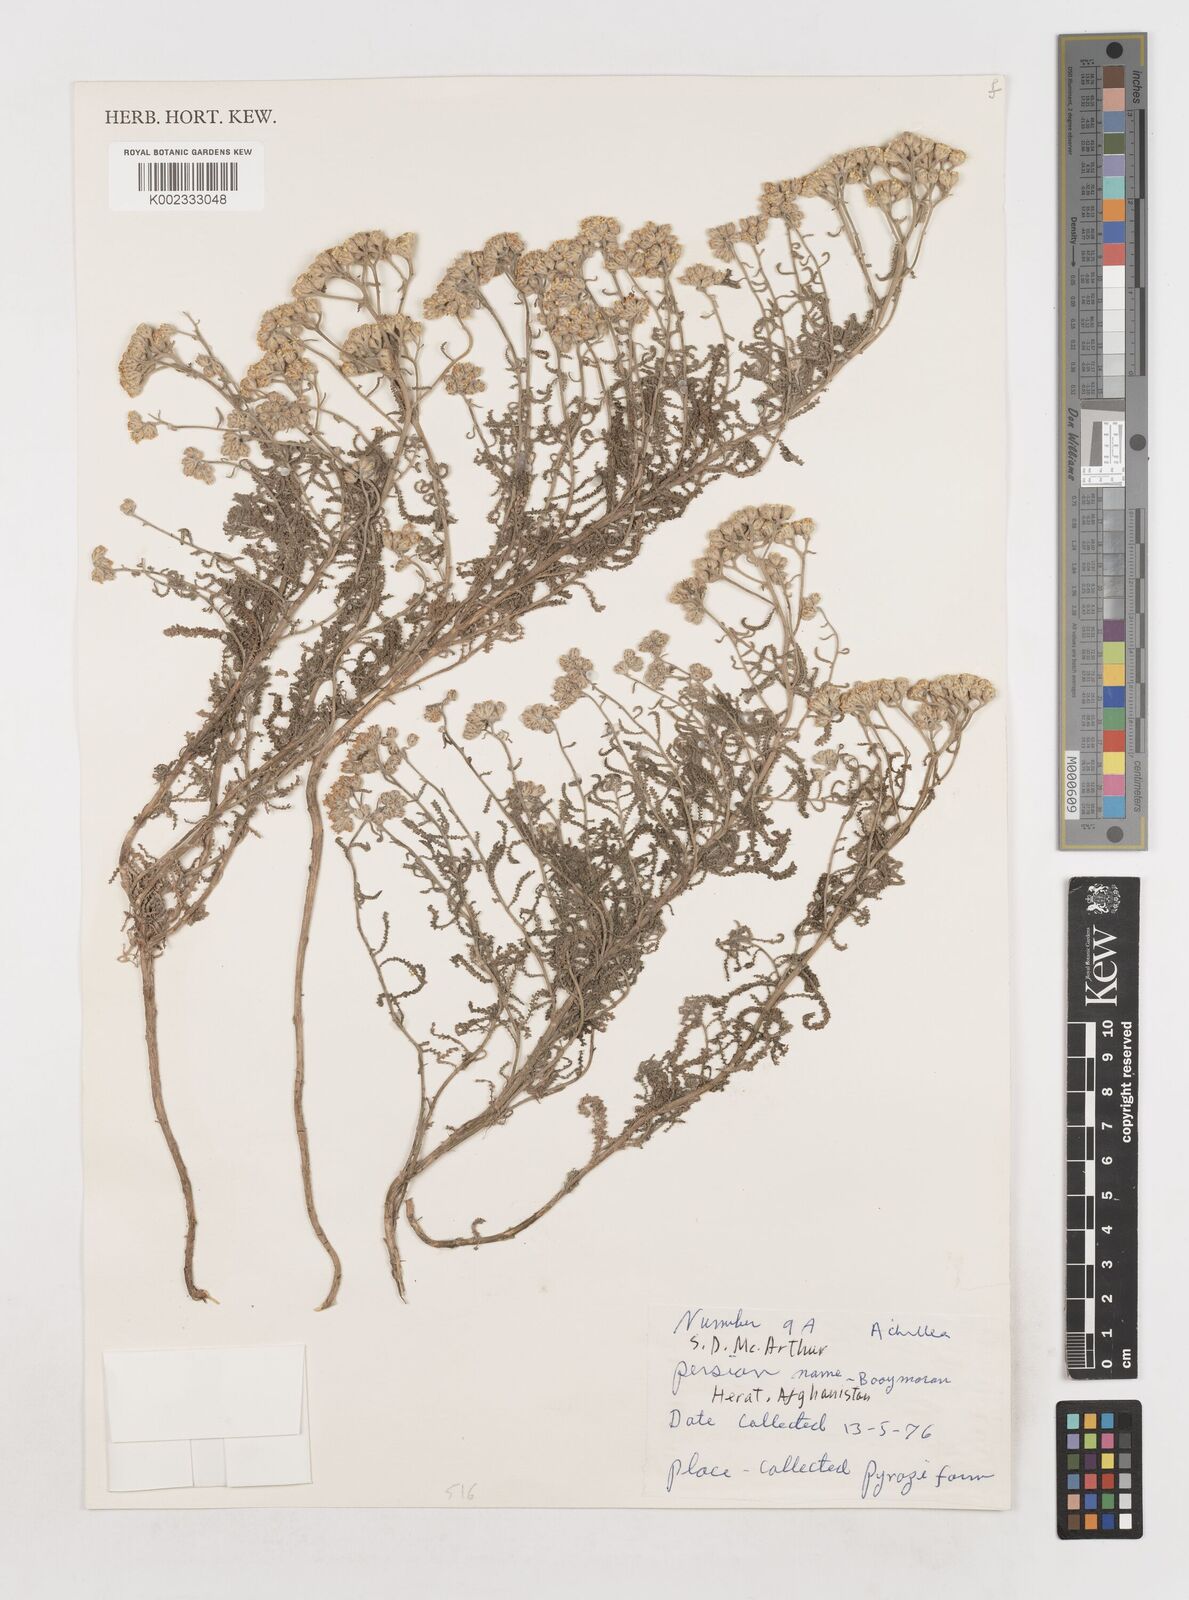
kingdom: Plantae
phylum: Tracheophyta
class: Magnoliopsida
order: Asterales
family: Asteraceae
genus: Achillea
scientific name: Achillea
